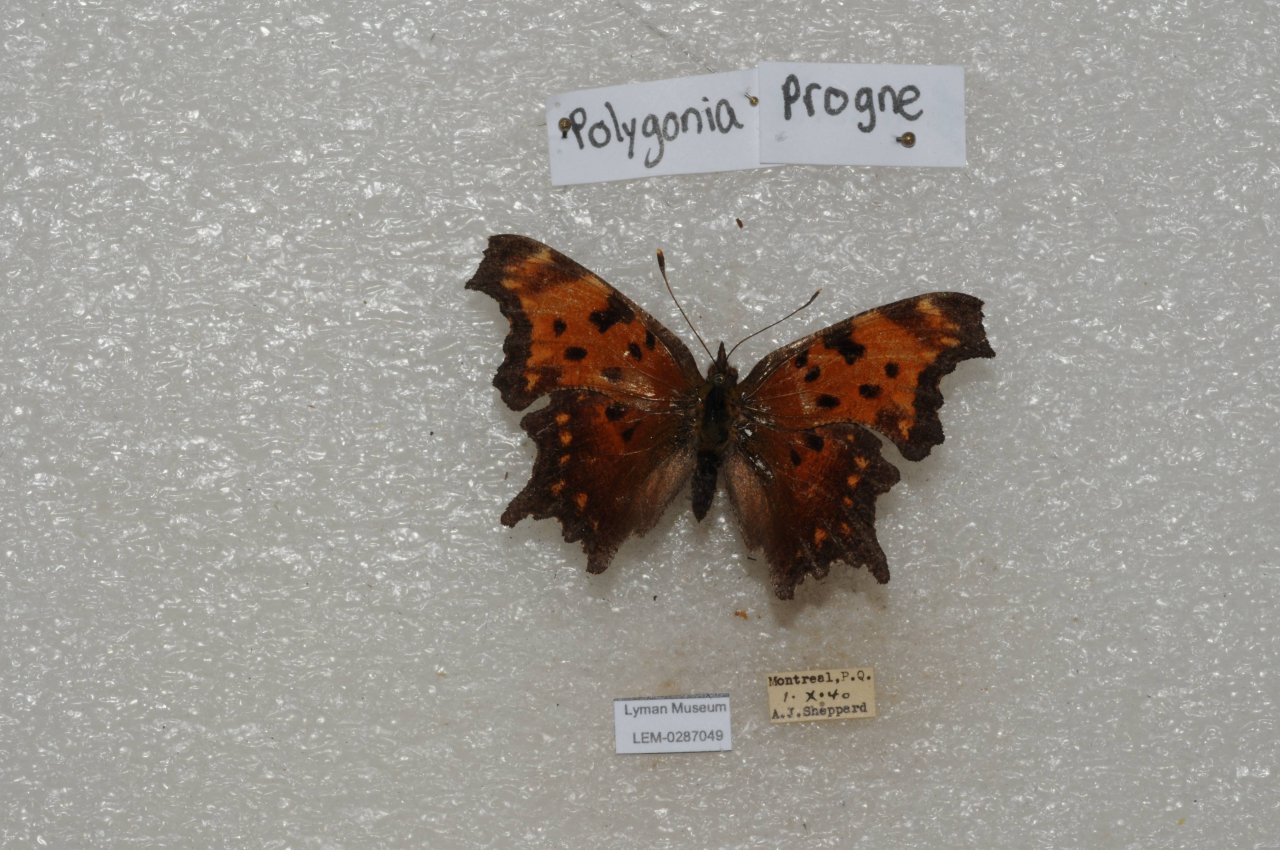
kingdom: Animalia
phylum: Arthropoda
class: Insecta
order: Lepidoptera
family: Nymphalidae
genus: Polygonia
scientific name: Polygonia progne
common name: Gray Comma
